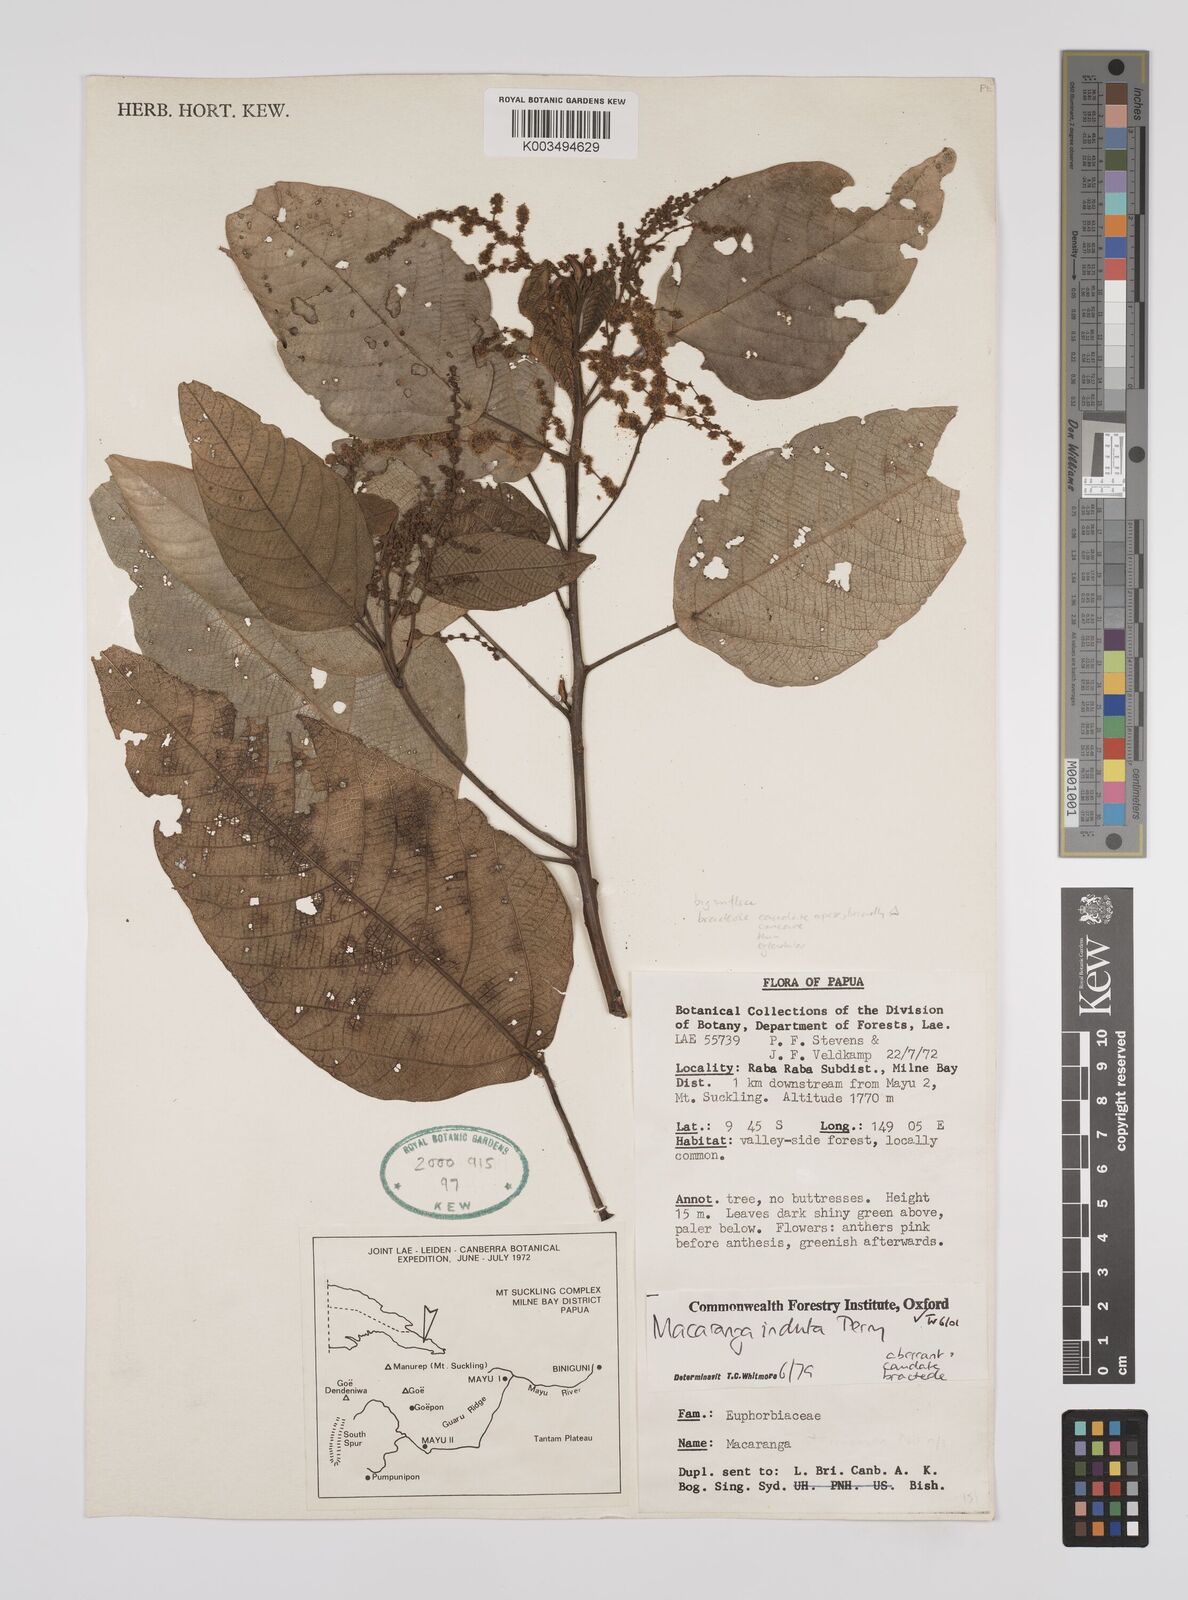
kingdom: Plantae
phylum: Tracheophyta
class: Magnoliopsida
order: Malpighiales
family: Euphorbiaceae
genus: Macaranga
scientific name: Macaranga induta
